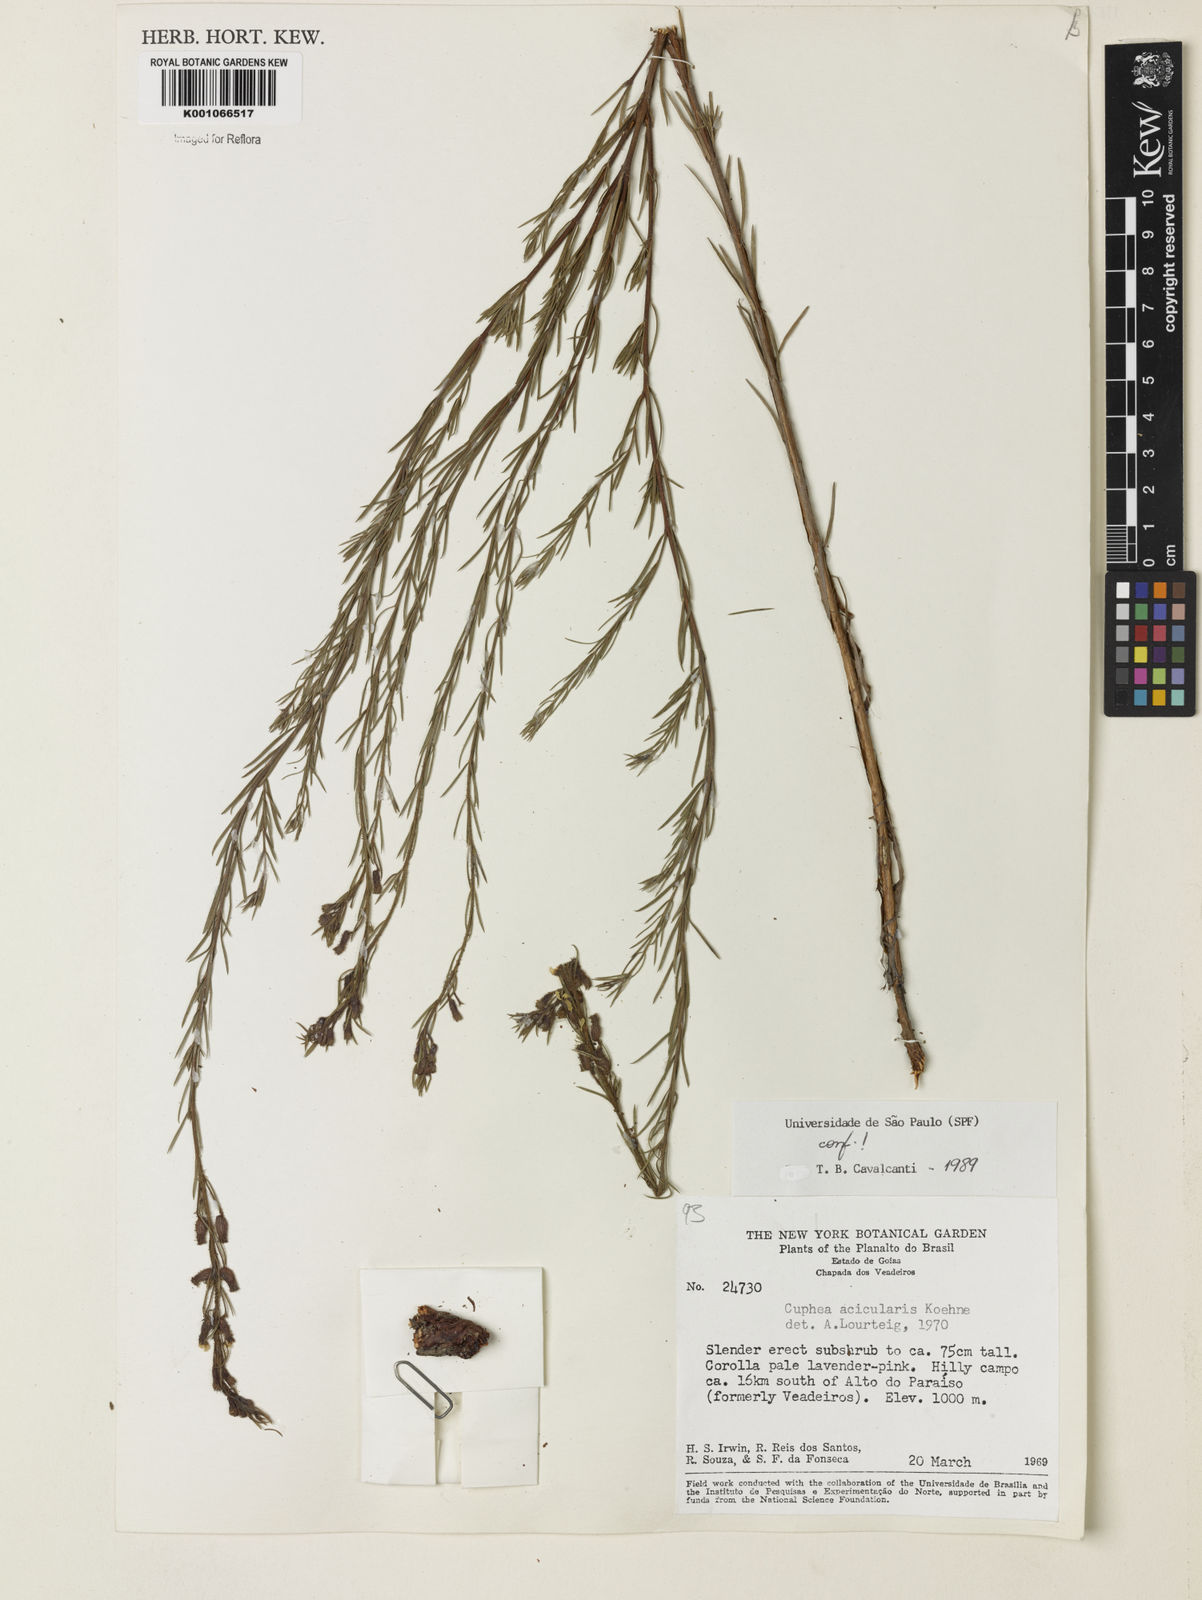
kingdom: Plantae
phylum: Tracheophyta
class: Magnoliopsida
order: Myrtales
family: Lythraceae
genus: Cuphea
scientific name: Cuphea acicularis
